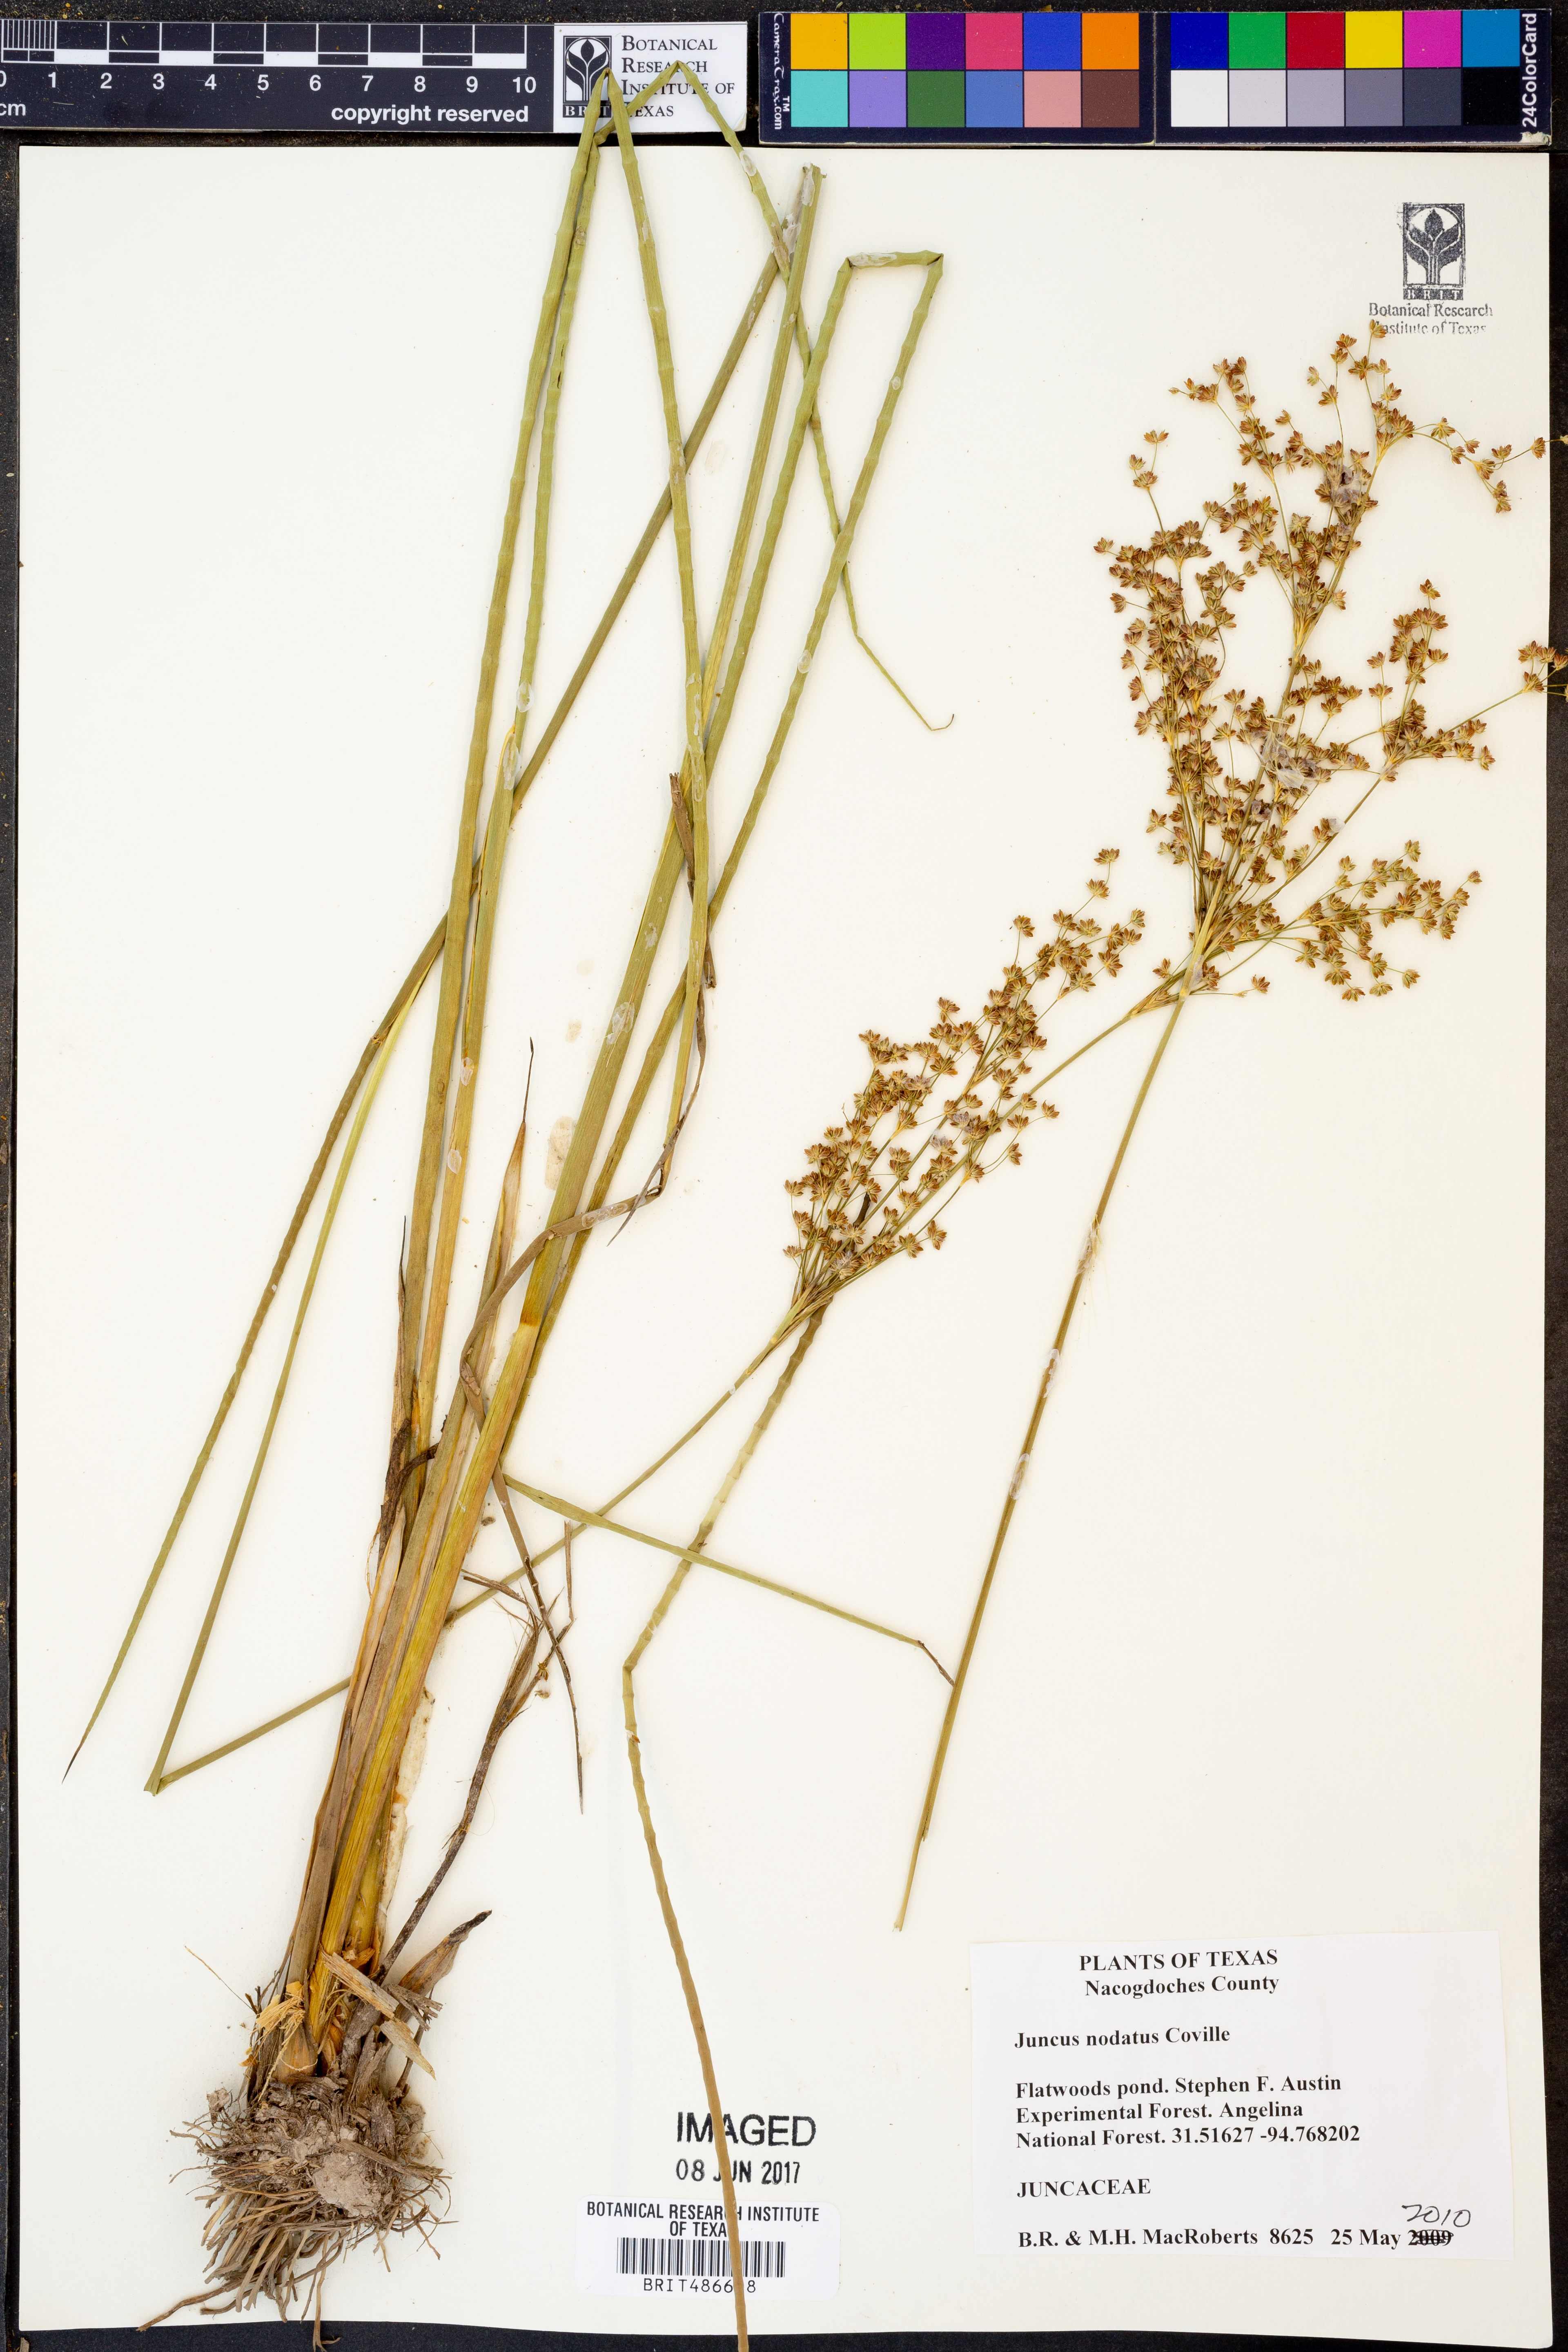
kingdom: Plantae
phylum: Tracheophyta
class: Liliopsida
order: Poales
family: Juncaceae
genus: Juncus
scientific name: Juncus nodatus
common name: Stout rush
